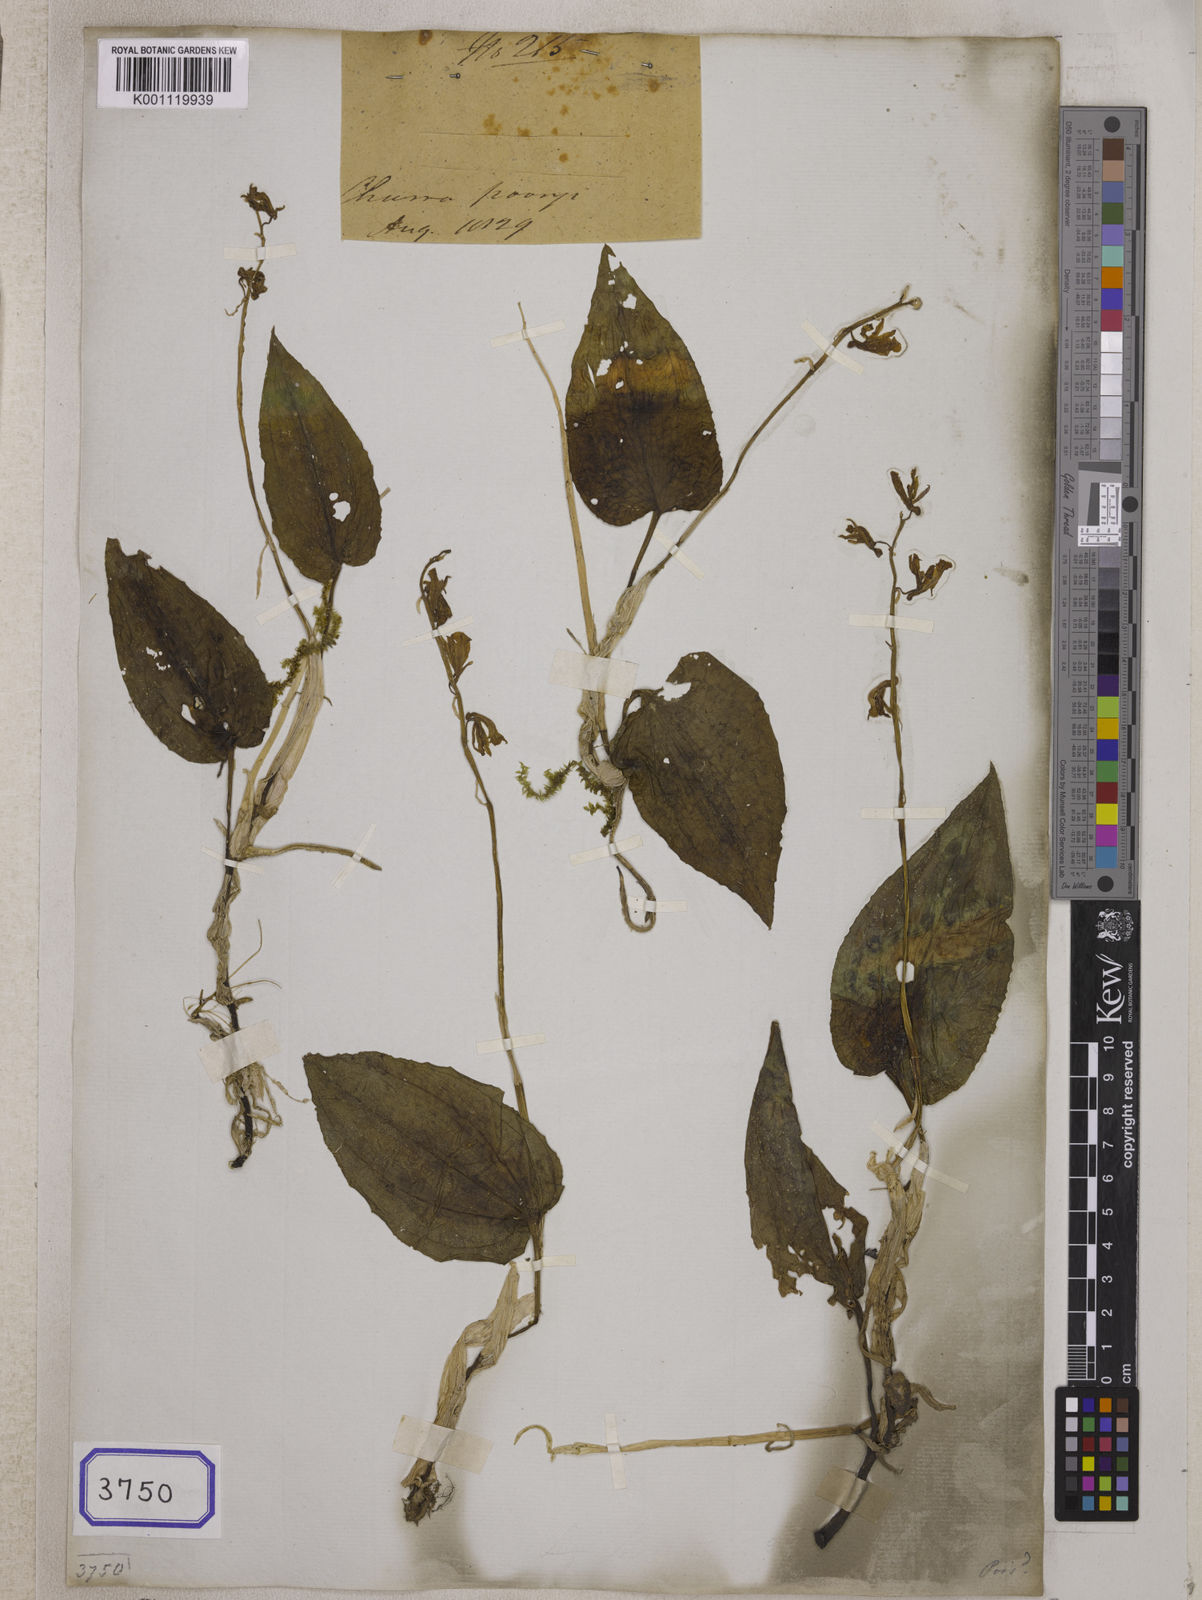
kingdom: Plantae
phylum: Tracheophyta
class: Liliopsida
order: Asparagales
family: Orchidaceae
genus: Nephelaphyllum
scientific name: Nephelaphyllum cordifolium
